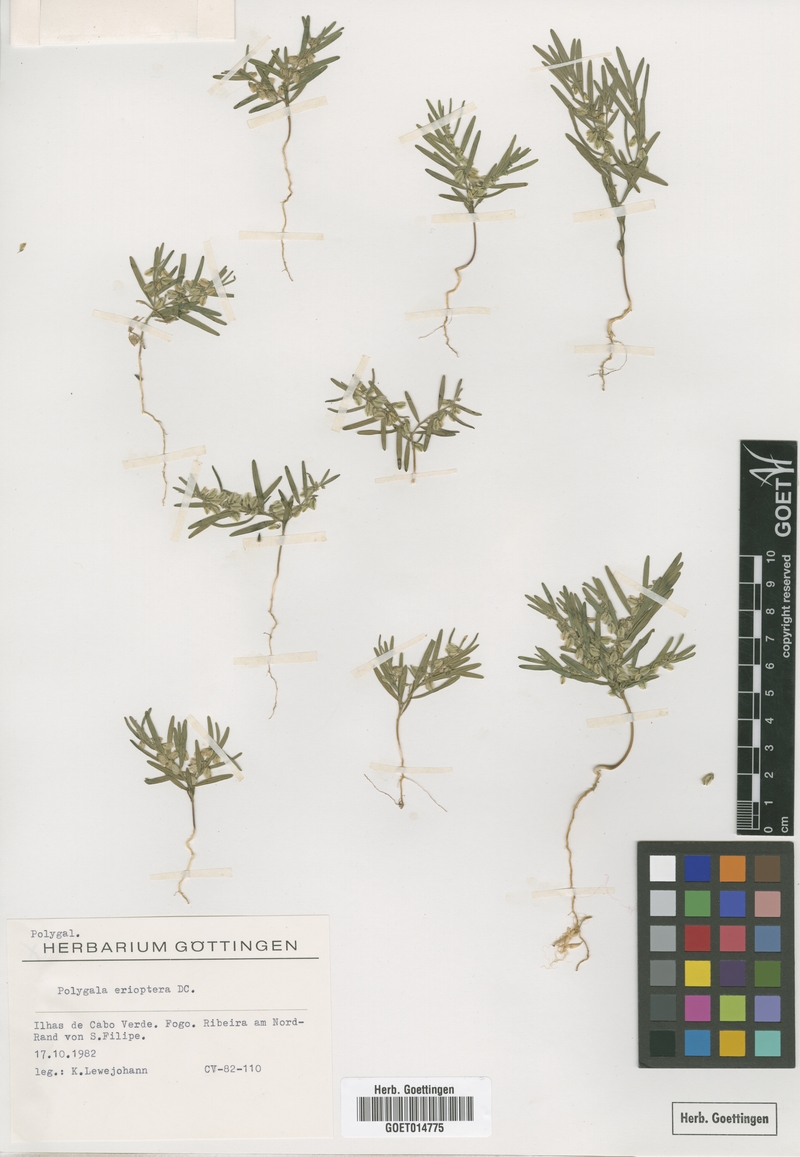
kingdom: Plantae
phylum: Tracheophyta
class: Magnoliopsida
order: Fabales
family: Polygalaceae
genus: Polygala
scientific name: Polygala erioptera
